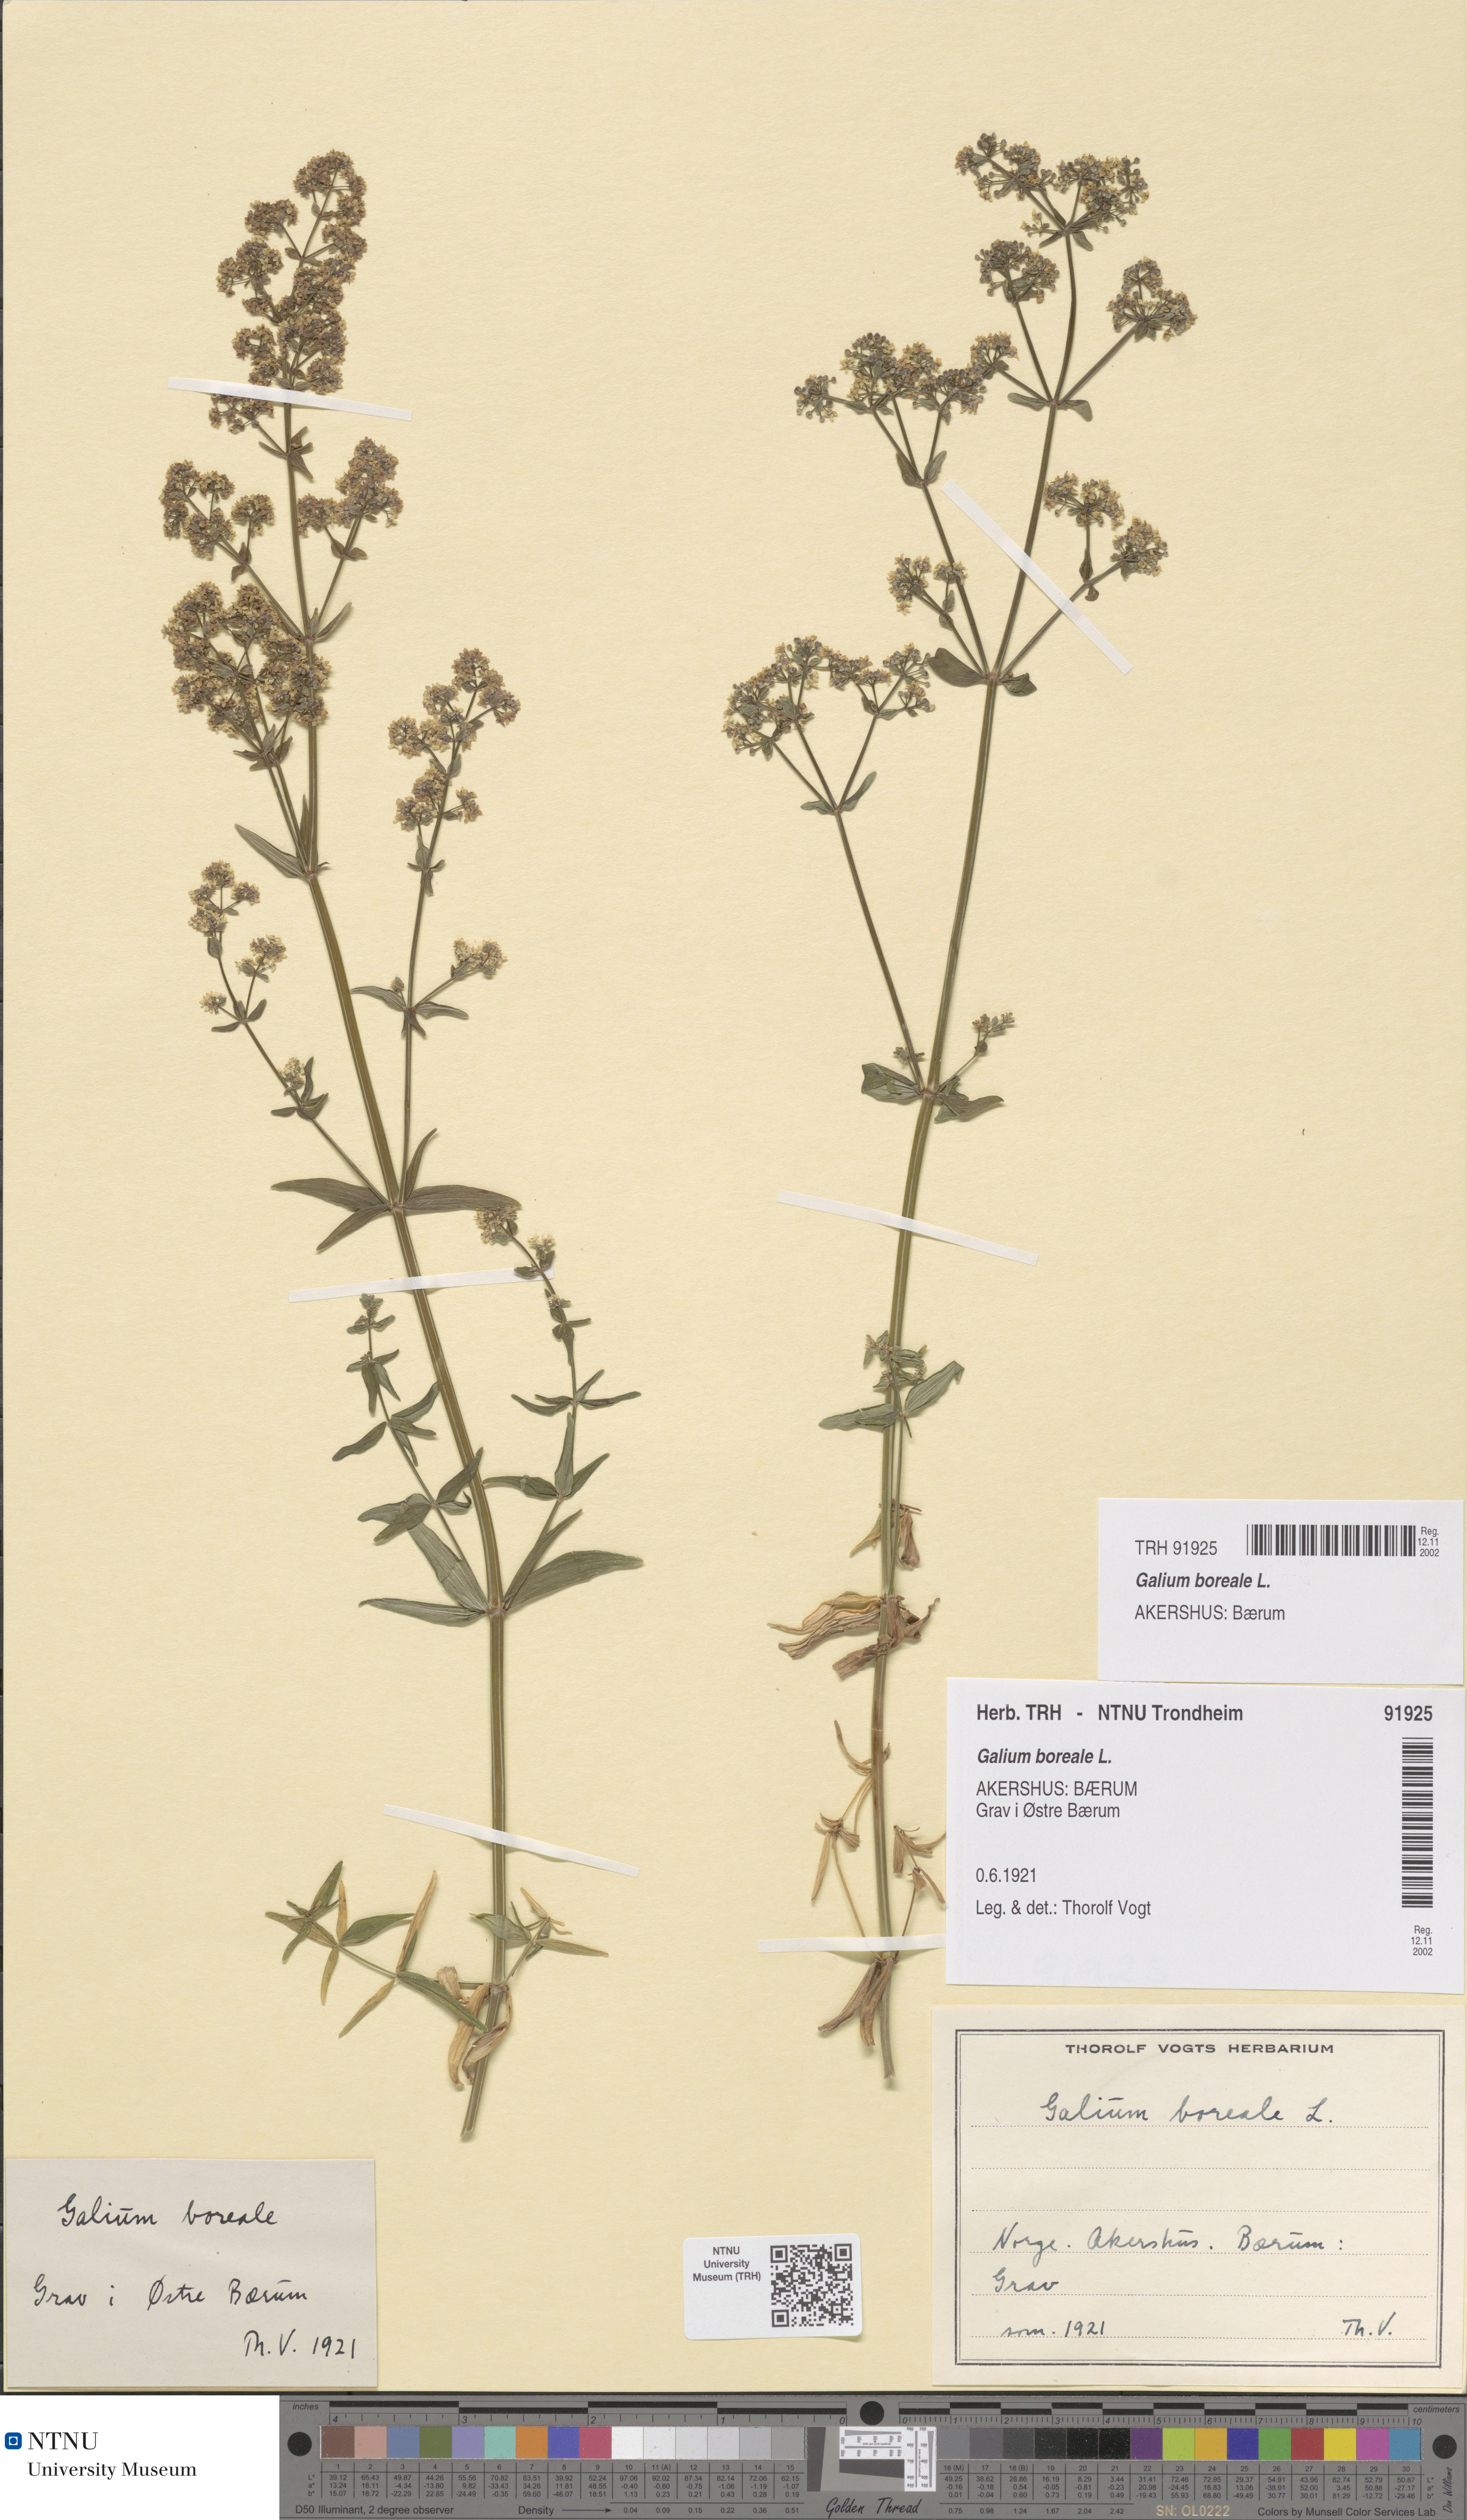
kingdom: Plantae
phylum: Tracheophyta
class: Magnoliopsida
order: Gentianales
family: Rubiaceae
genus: Galium
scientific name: Galium boreale
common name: Northern bedstraw
